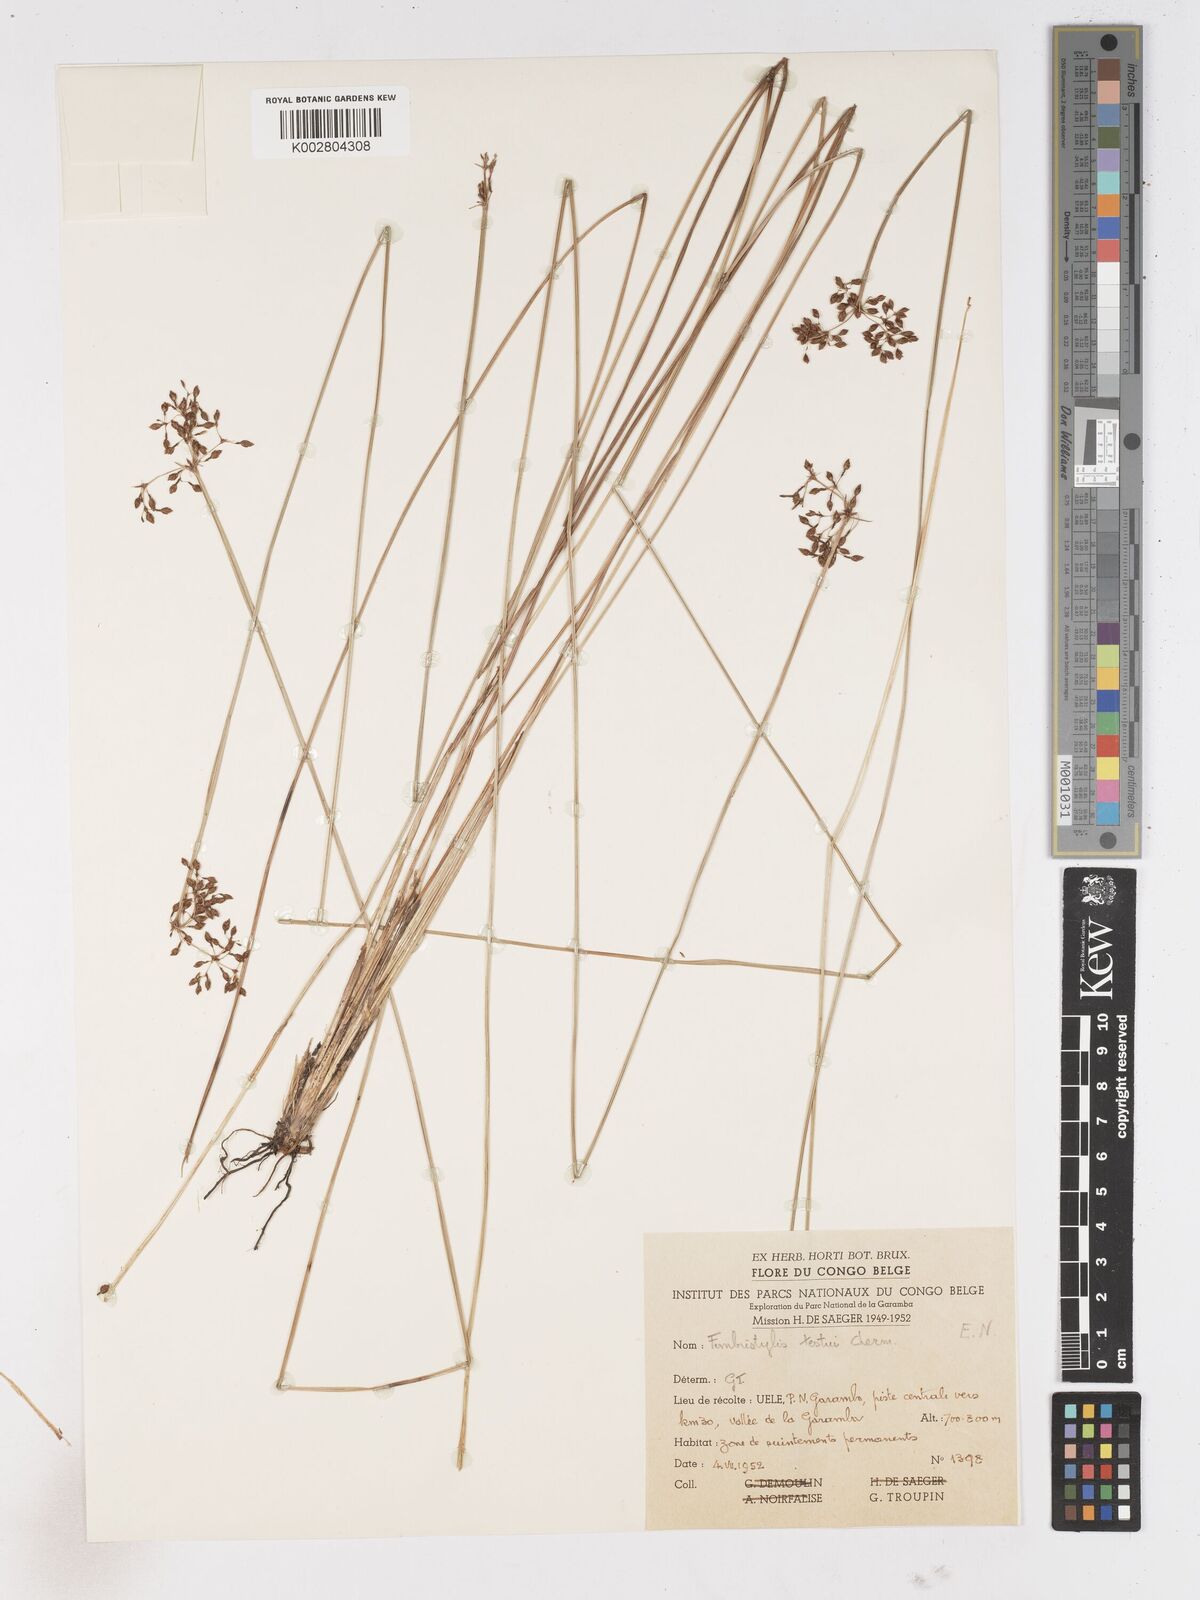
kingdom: Plantae
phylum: Tracheophyta
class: Liliopsida
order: Poales
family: Cyperaceae
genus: Fimbristylis
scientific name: Fimbristylis aphylla
